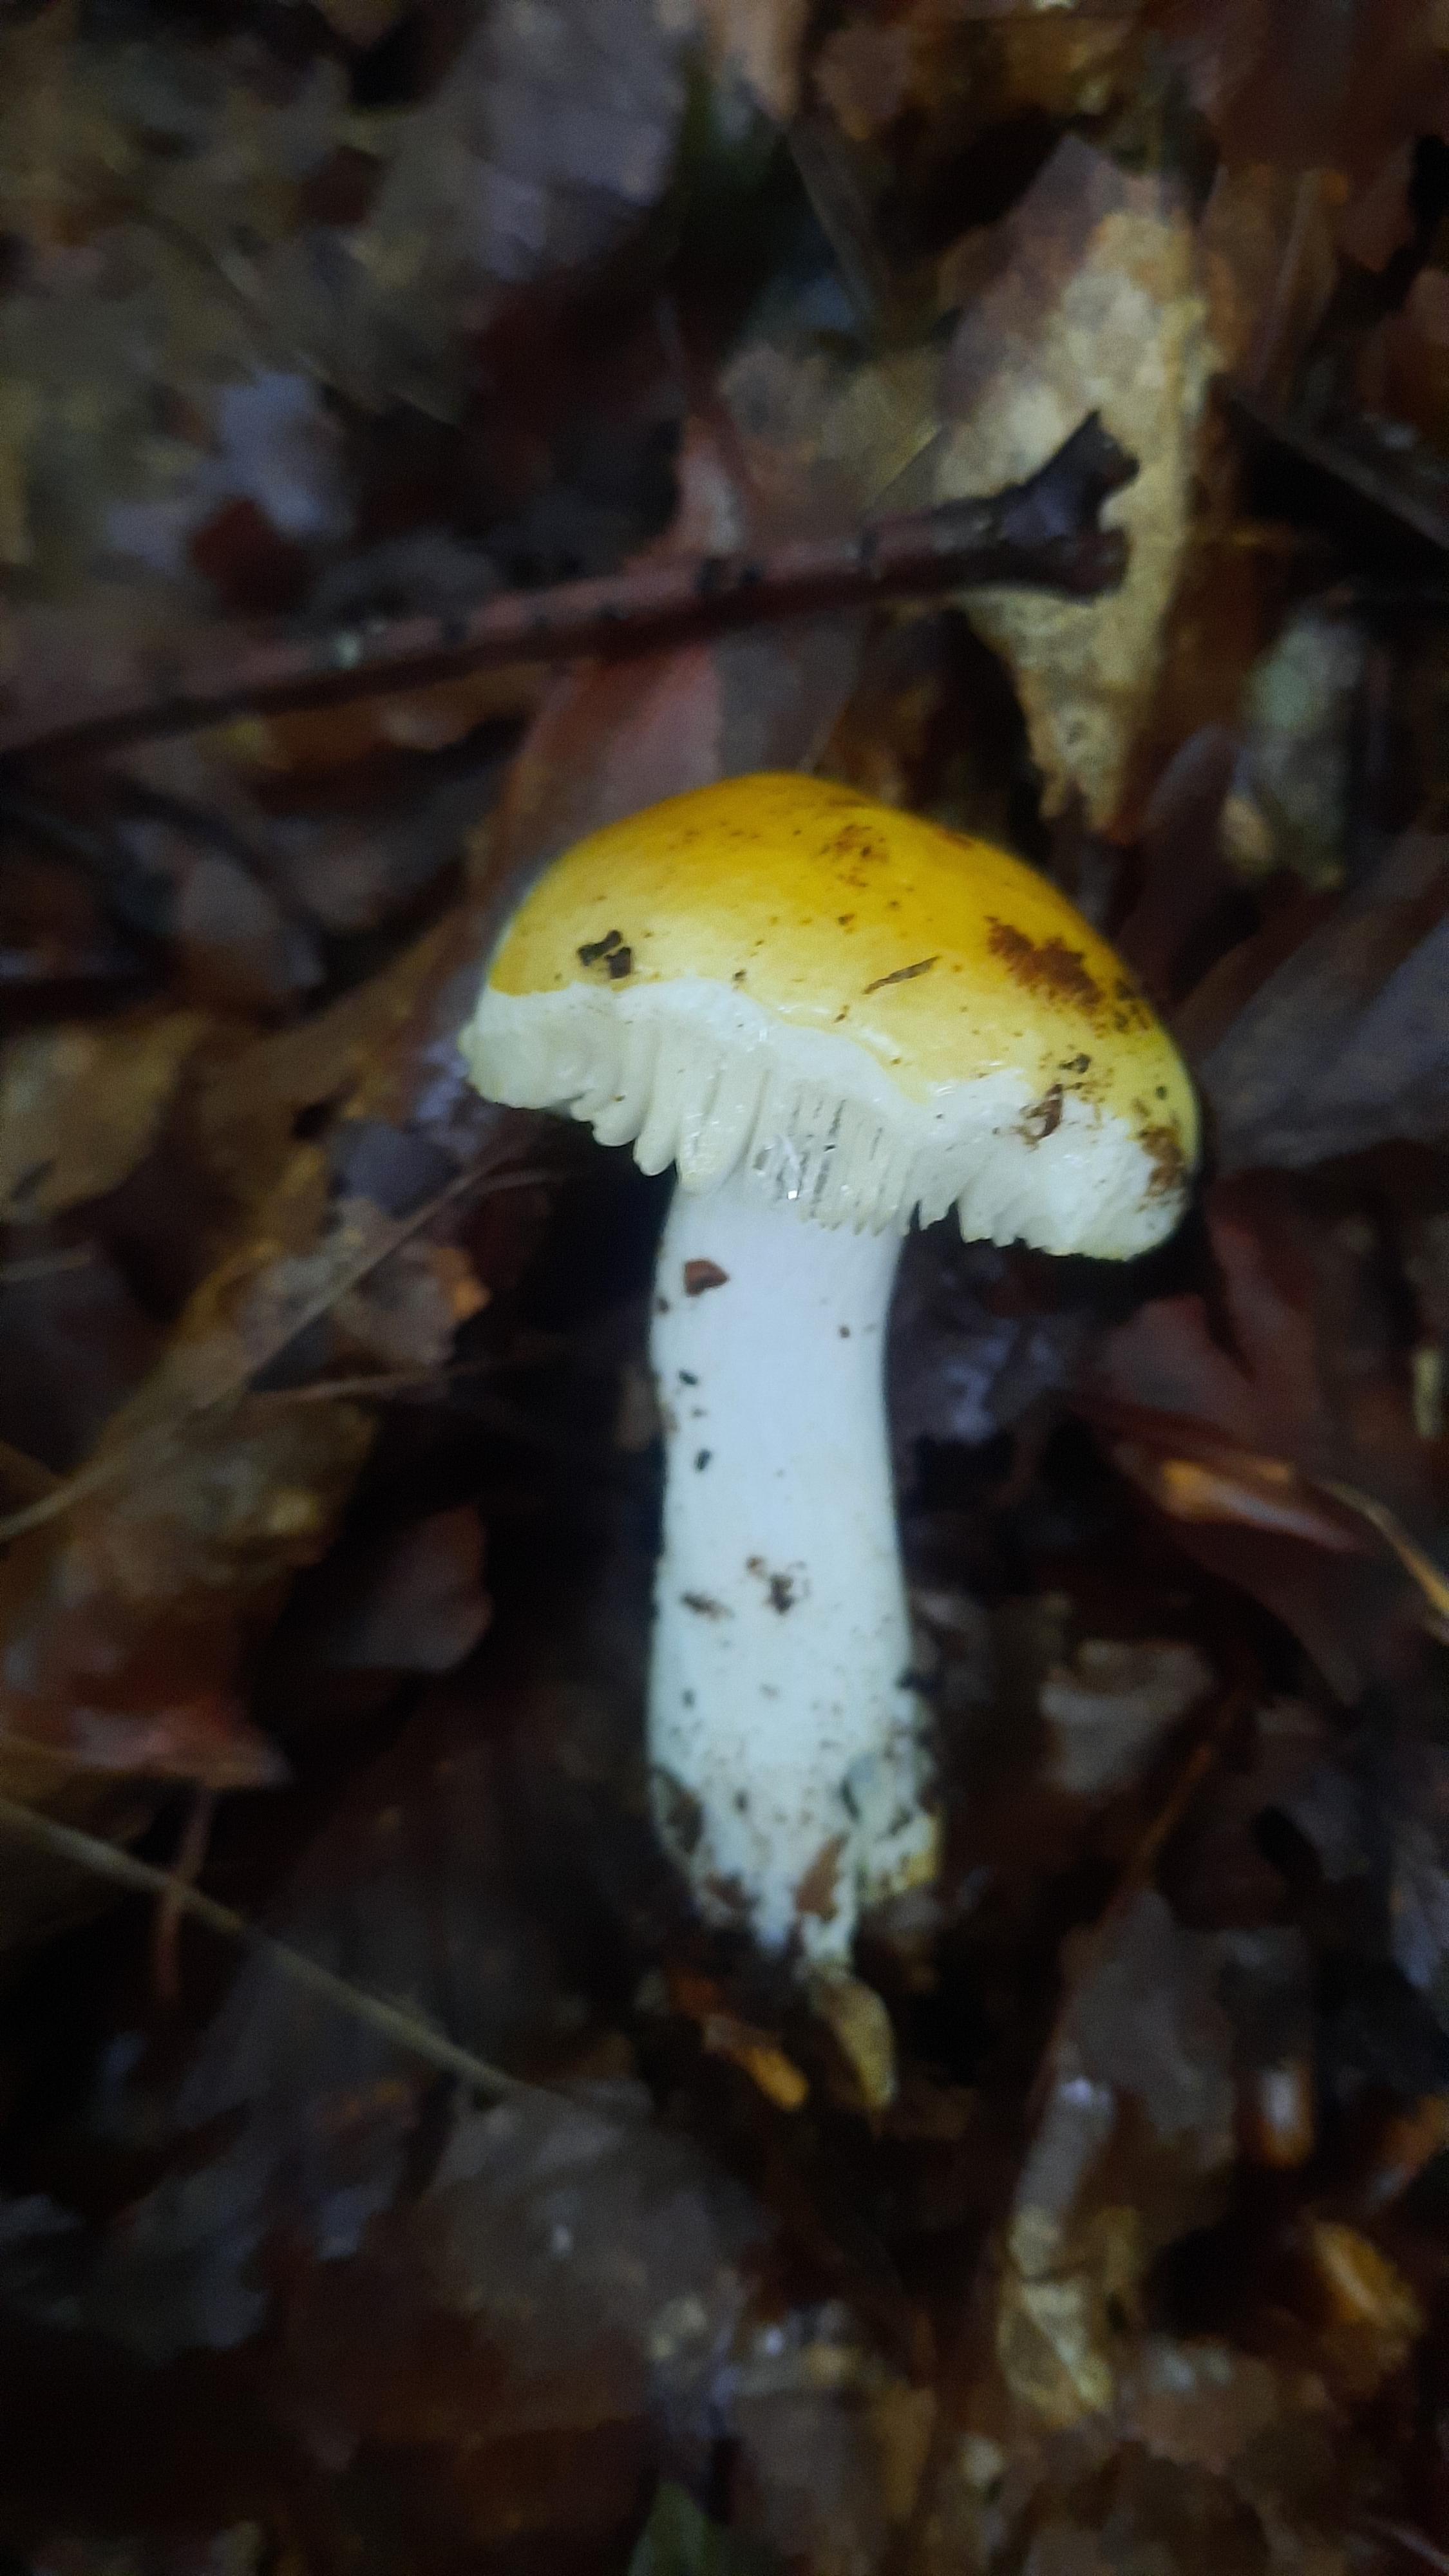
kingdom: Fungi
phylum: Basidiomycota
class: Agaricomycetes
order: Russulales
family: Russulaceae
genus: Russula
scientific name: Russula solaris
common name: sol-skørhat
